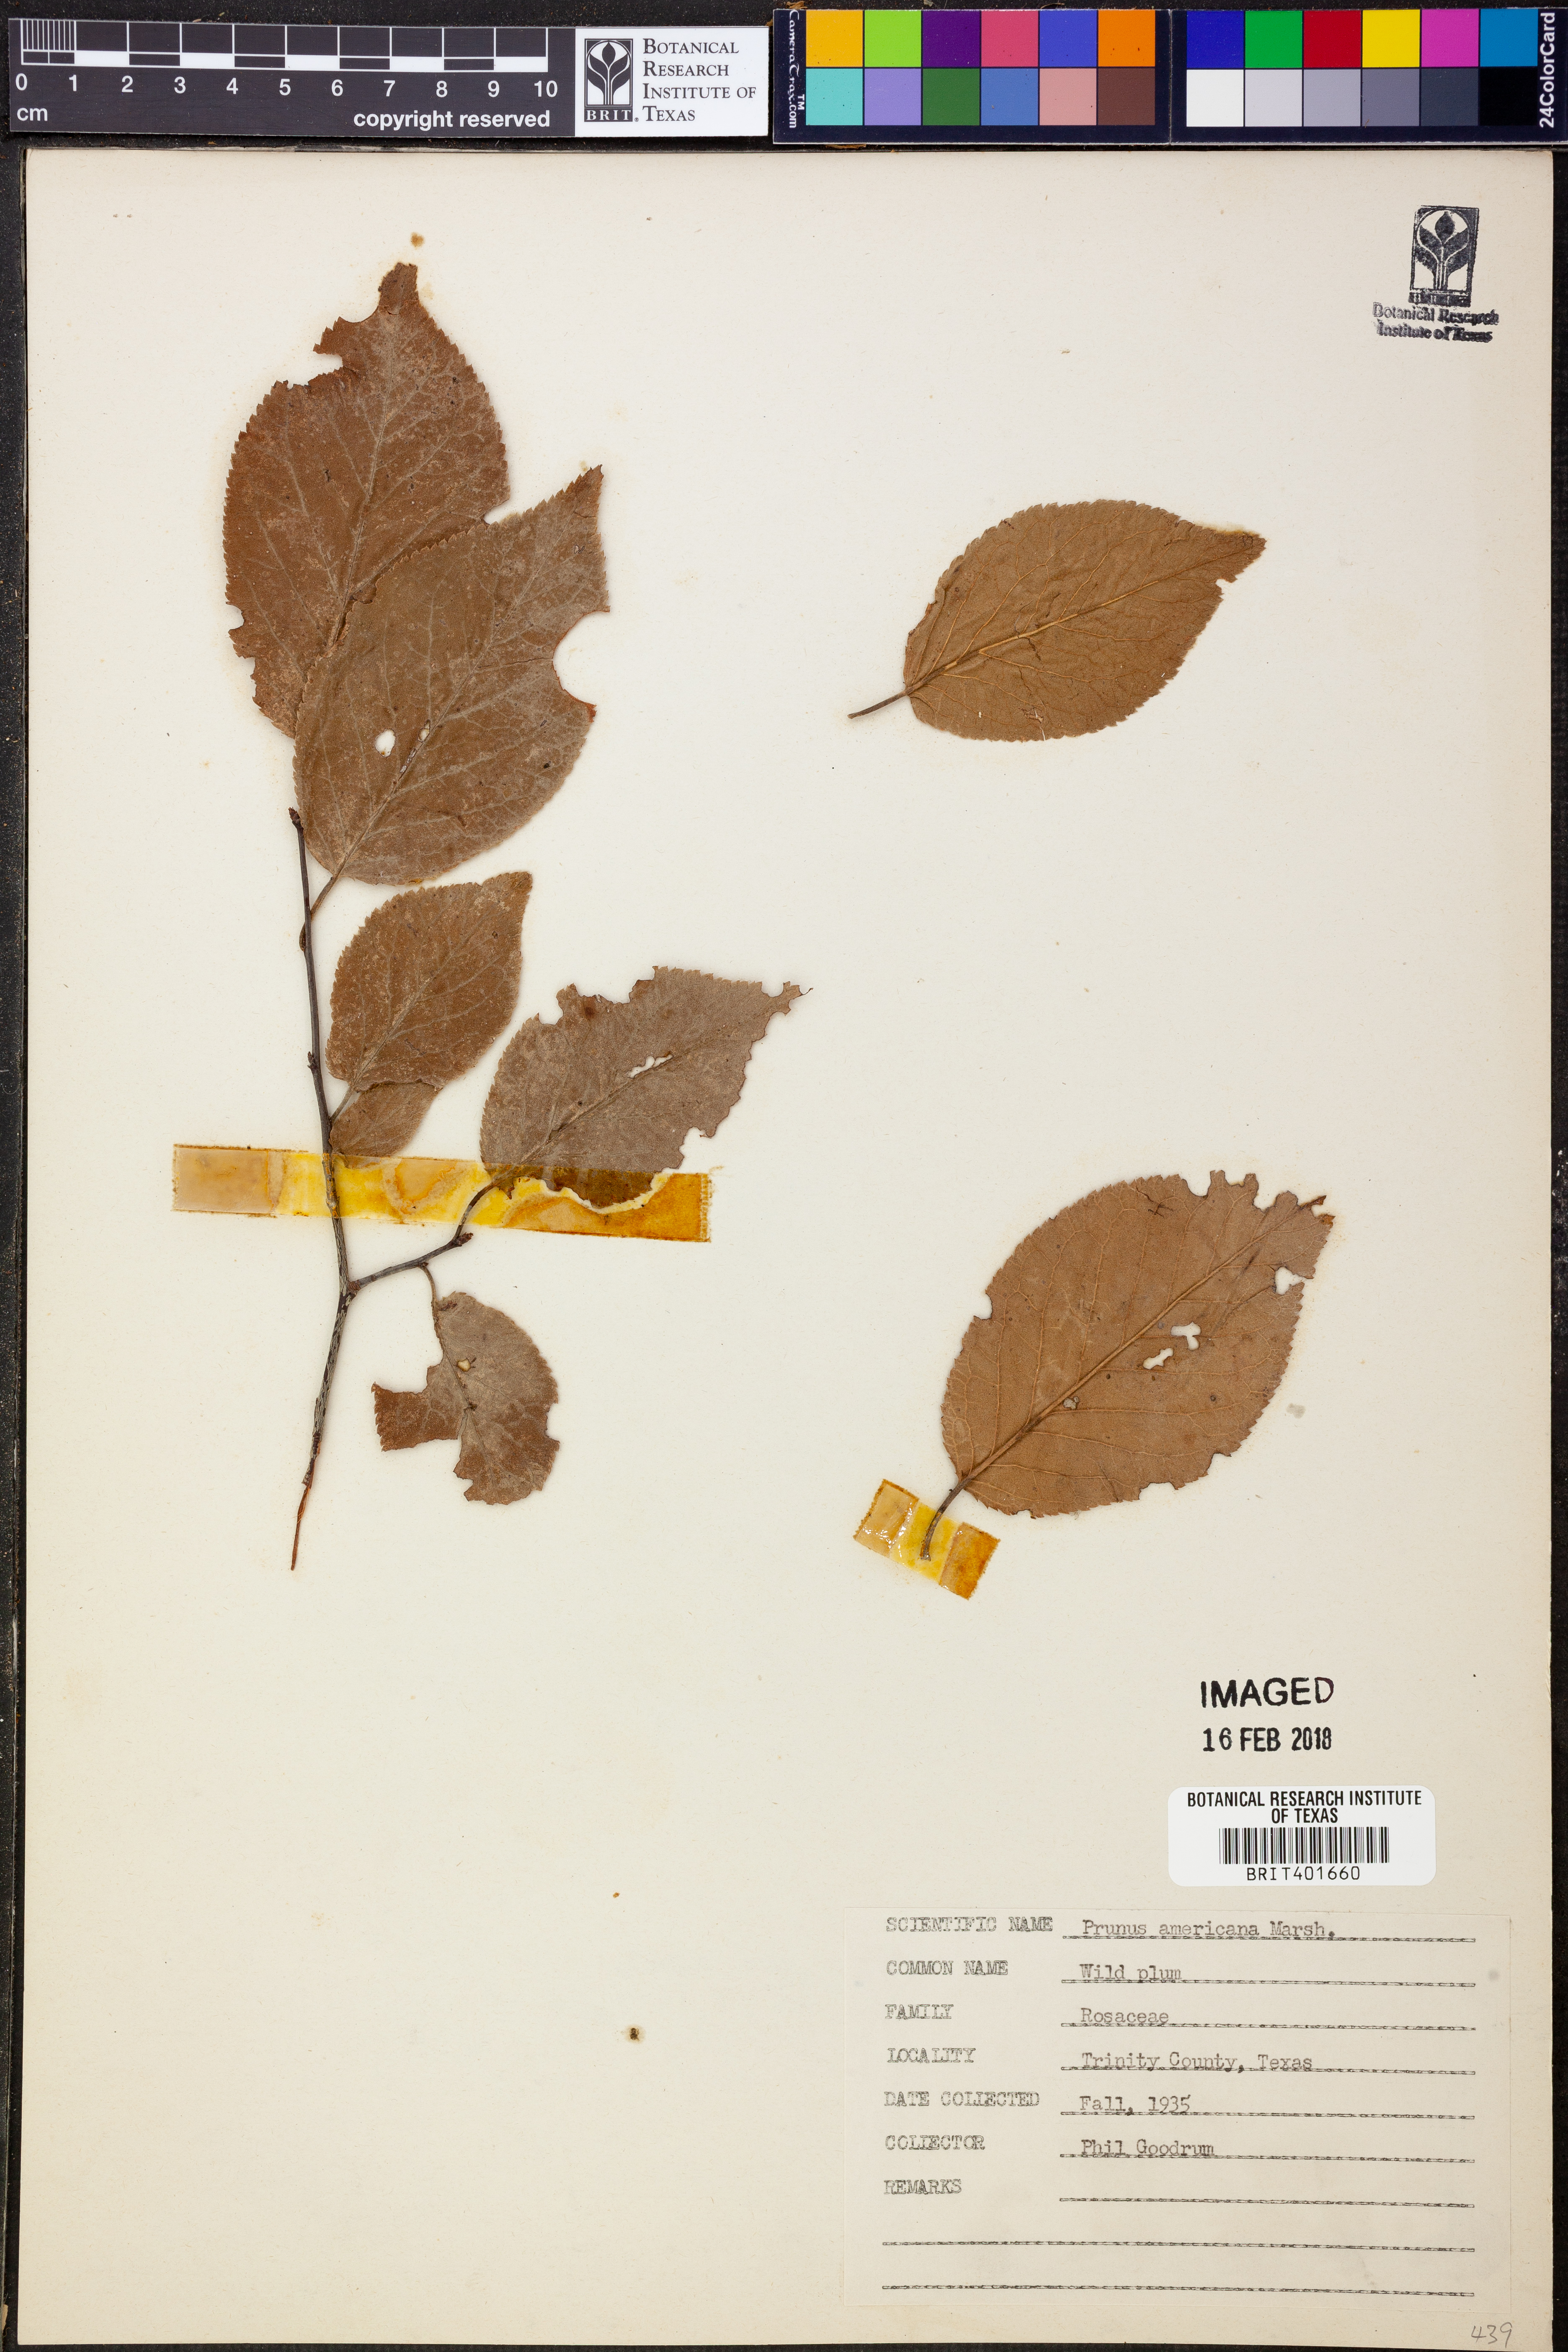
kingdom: Plantae
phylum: Tracheophyta
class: Magnoliopsida
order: Rosales
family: Rosaceae
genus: Prunus
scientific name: Prunus americana
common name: American plum
